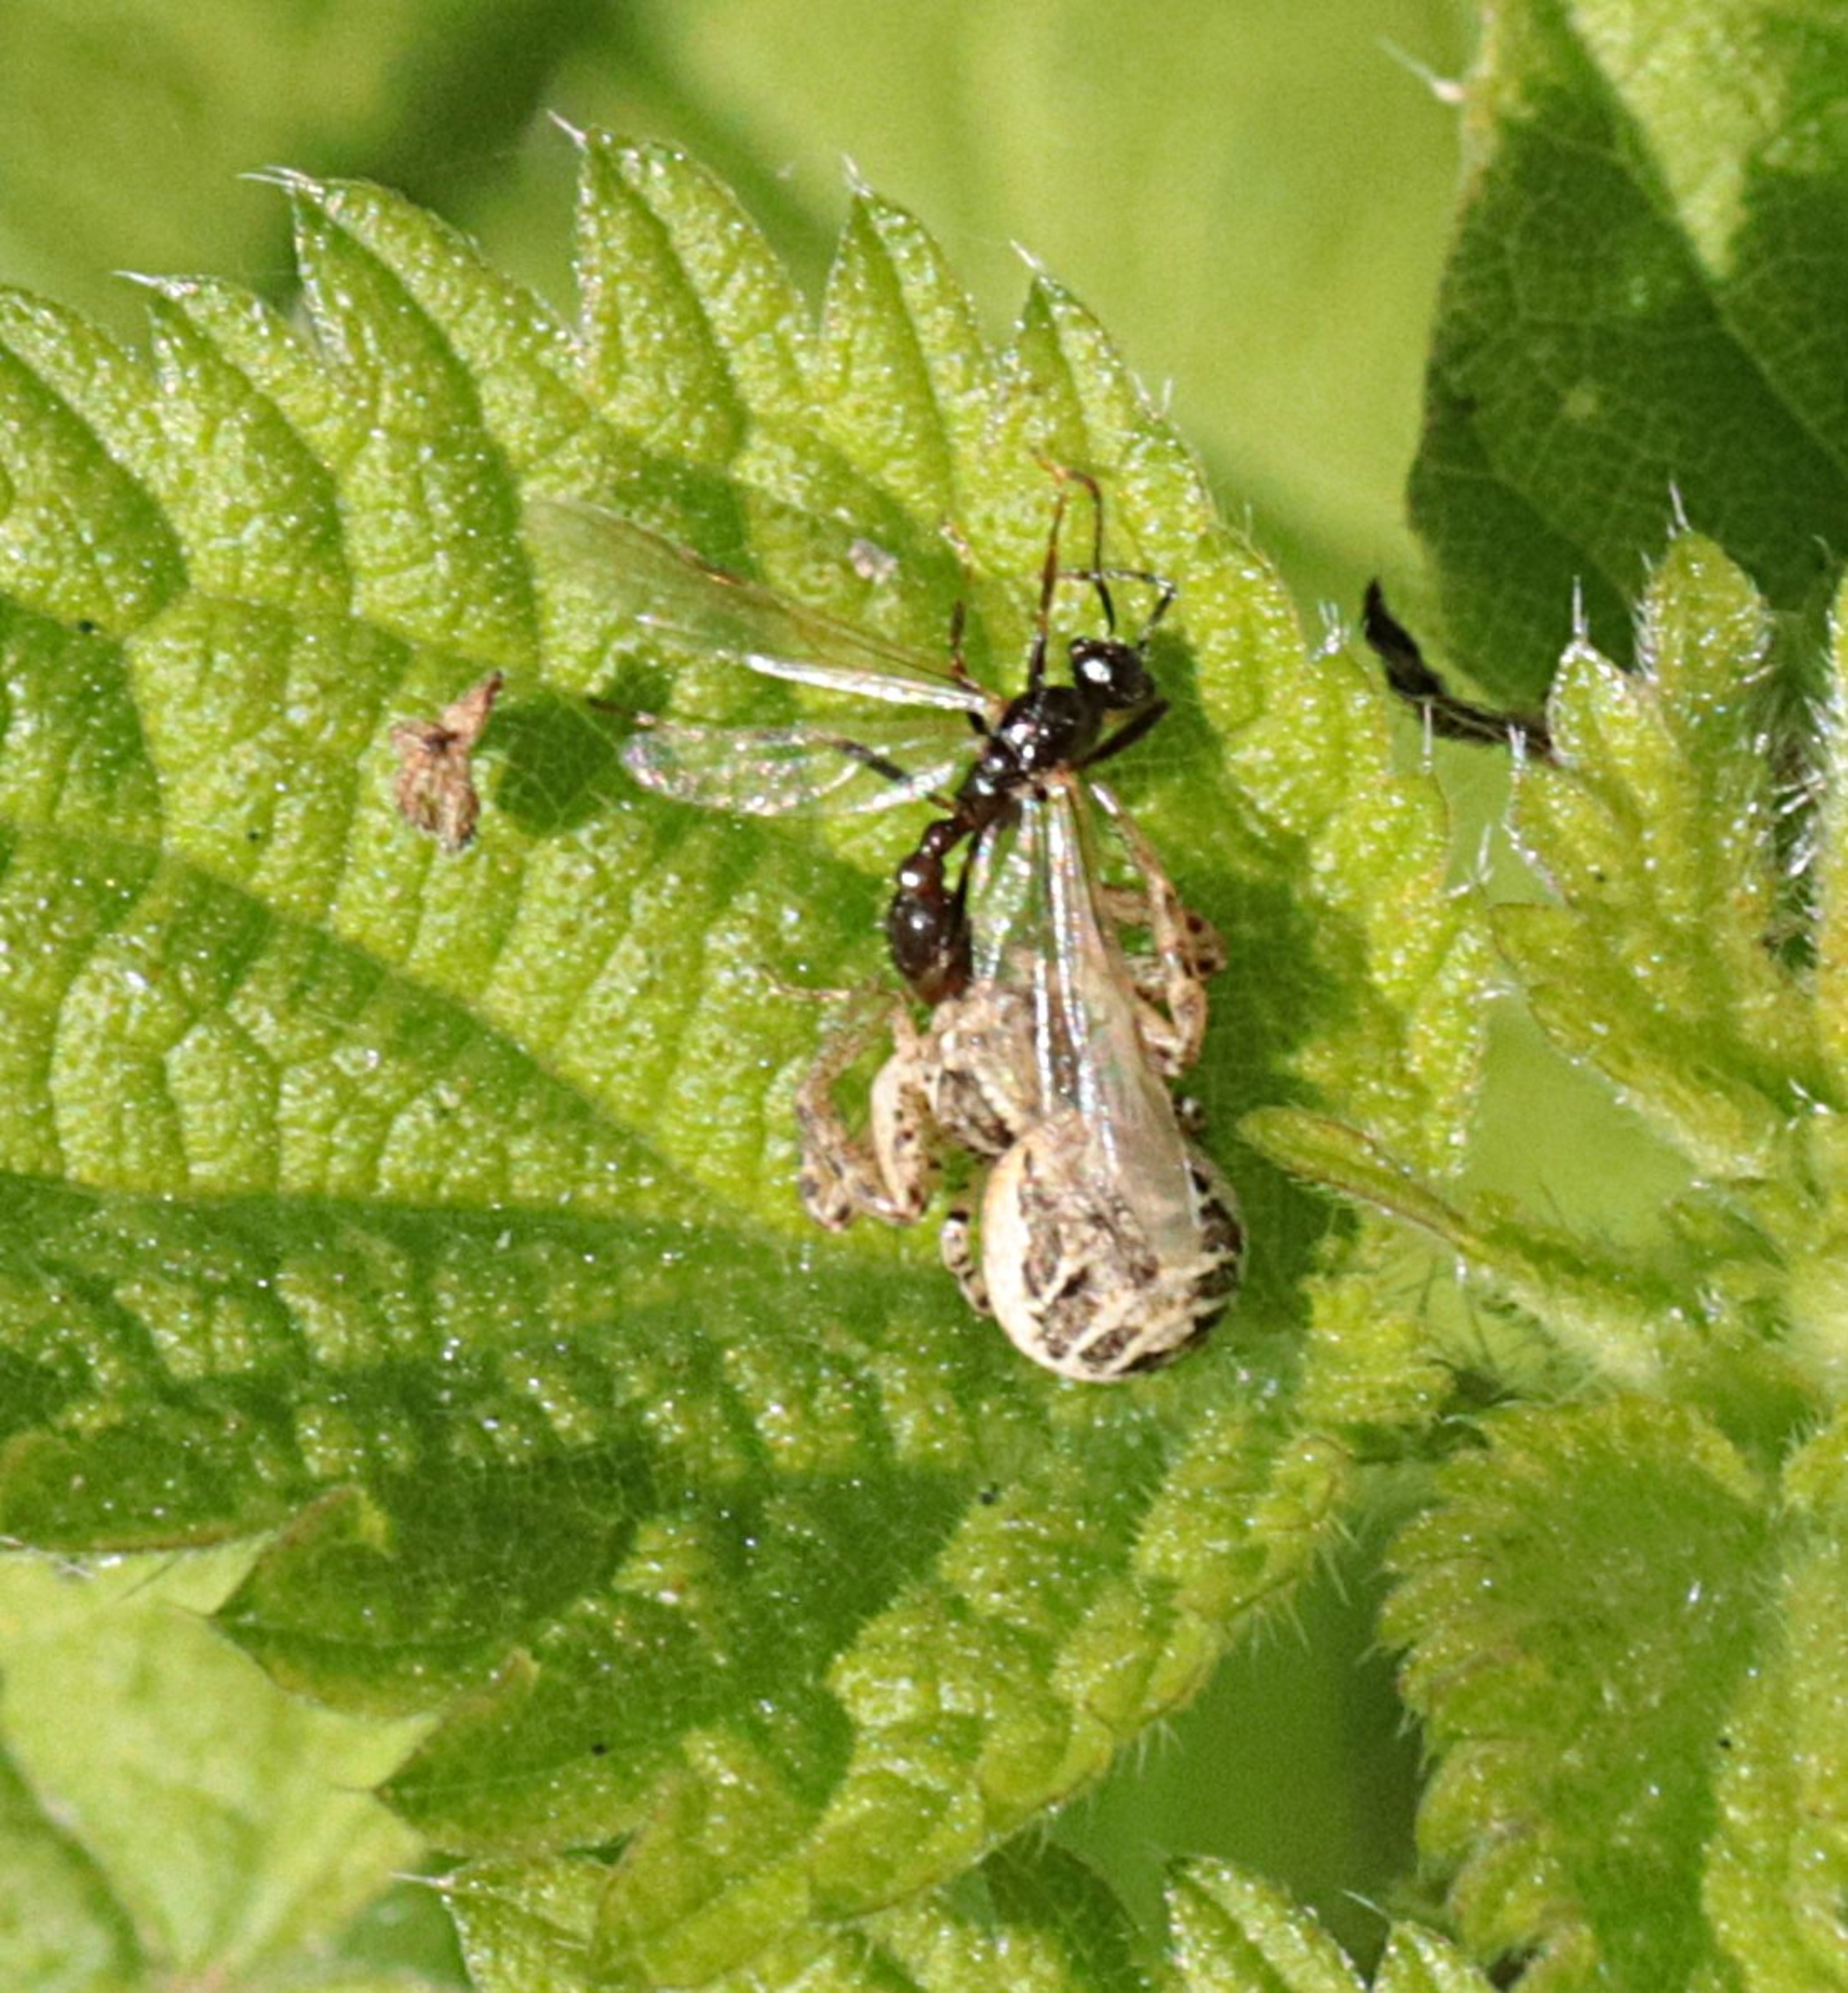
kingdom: Animalia
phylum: Arthropoda
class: Arachnida
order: Araneae
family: Thomisidae
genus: Xysticus
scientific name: Xysticus
